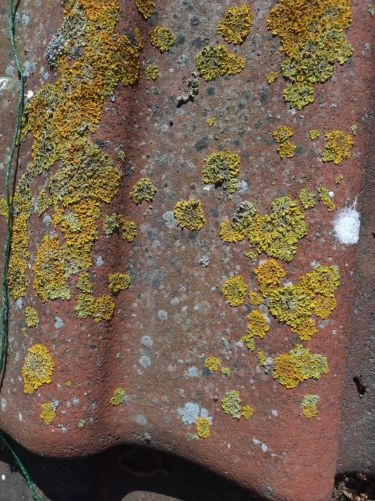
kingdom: Fungi
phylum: Ascomycota
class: Lecanoromycetes
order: Teloschistales
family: Teloschistaceae
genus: Xanthoria
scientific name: Xanthoria parietina
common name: Almindelig væggelav
